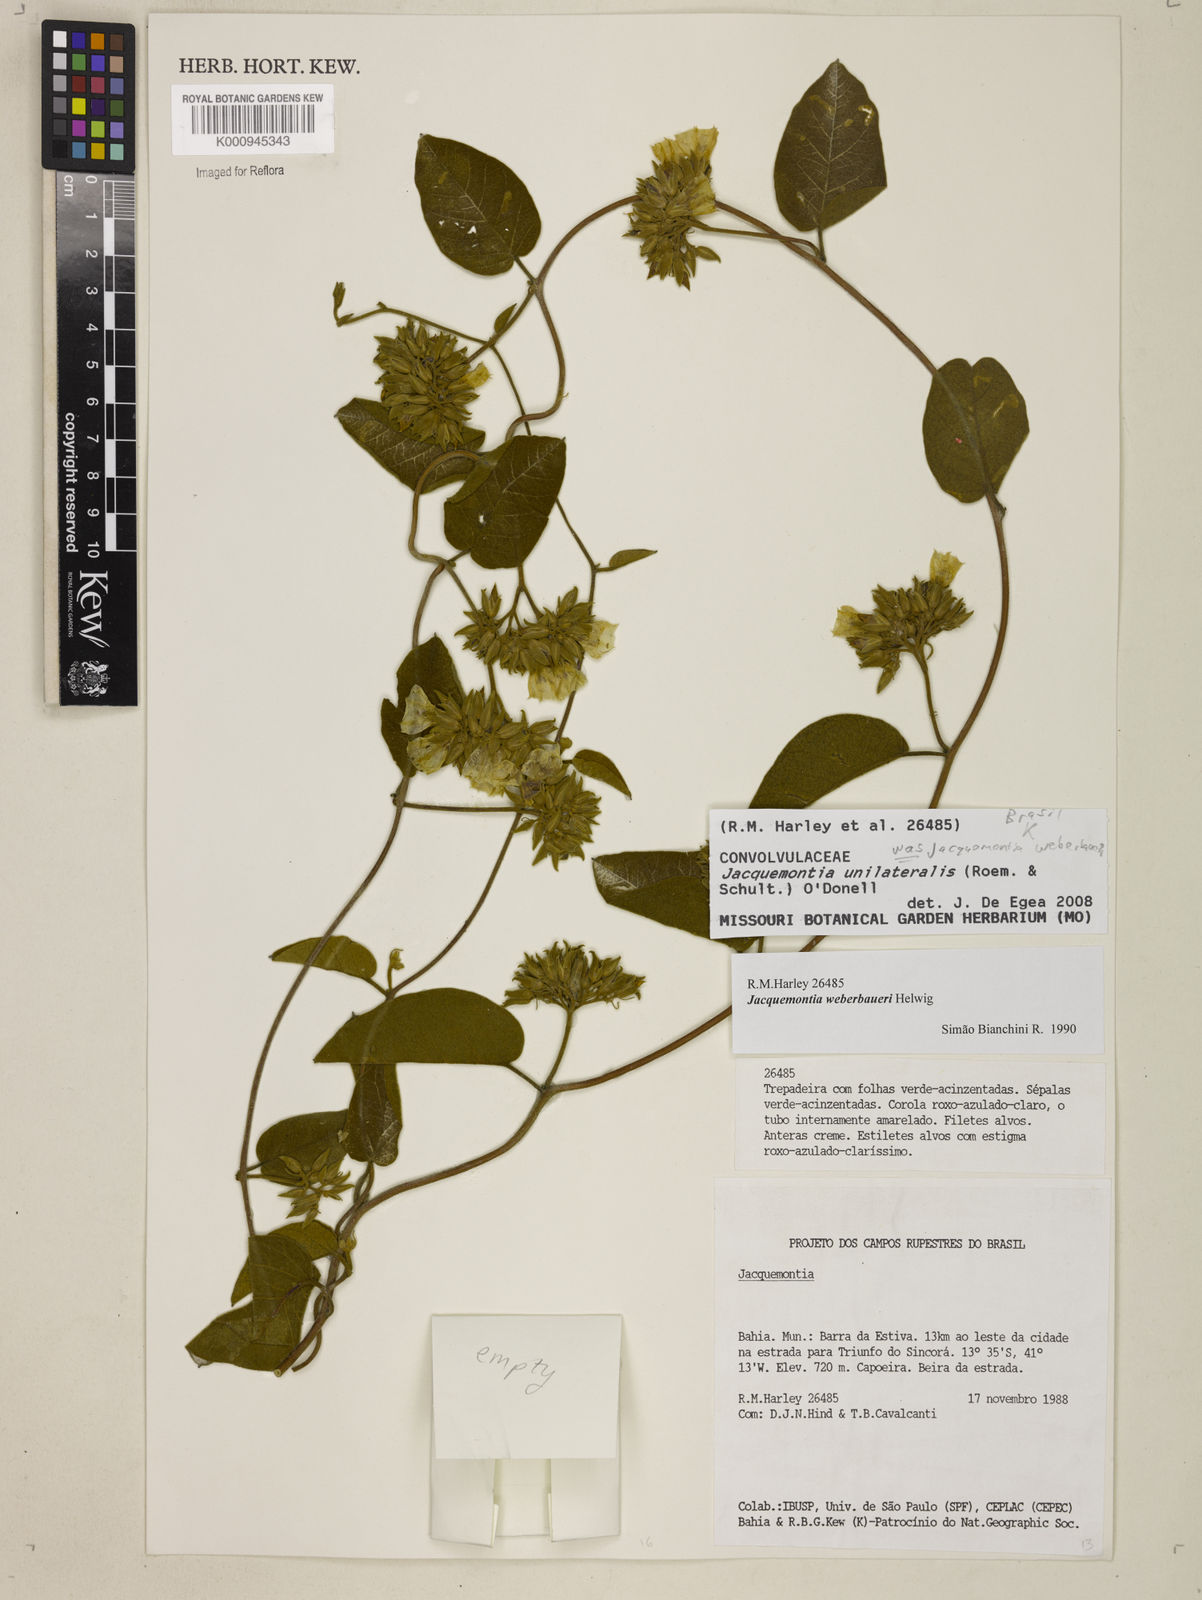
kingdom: Plantae
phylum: Tracheophyta
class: Magnoliopsida
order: Solanales
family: Convolvulaceae
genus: Jacquemontia
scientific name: Jacquemontia
